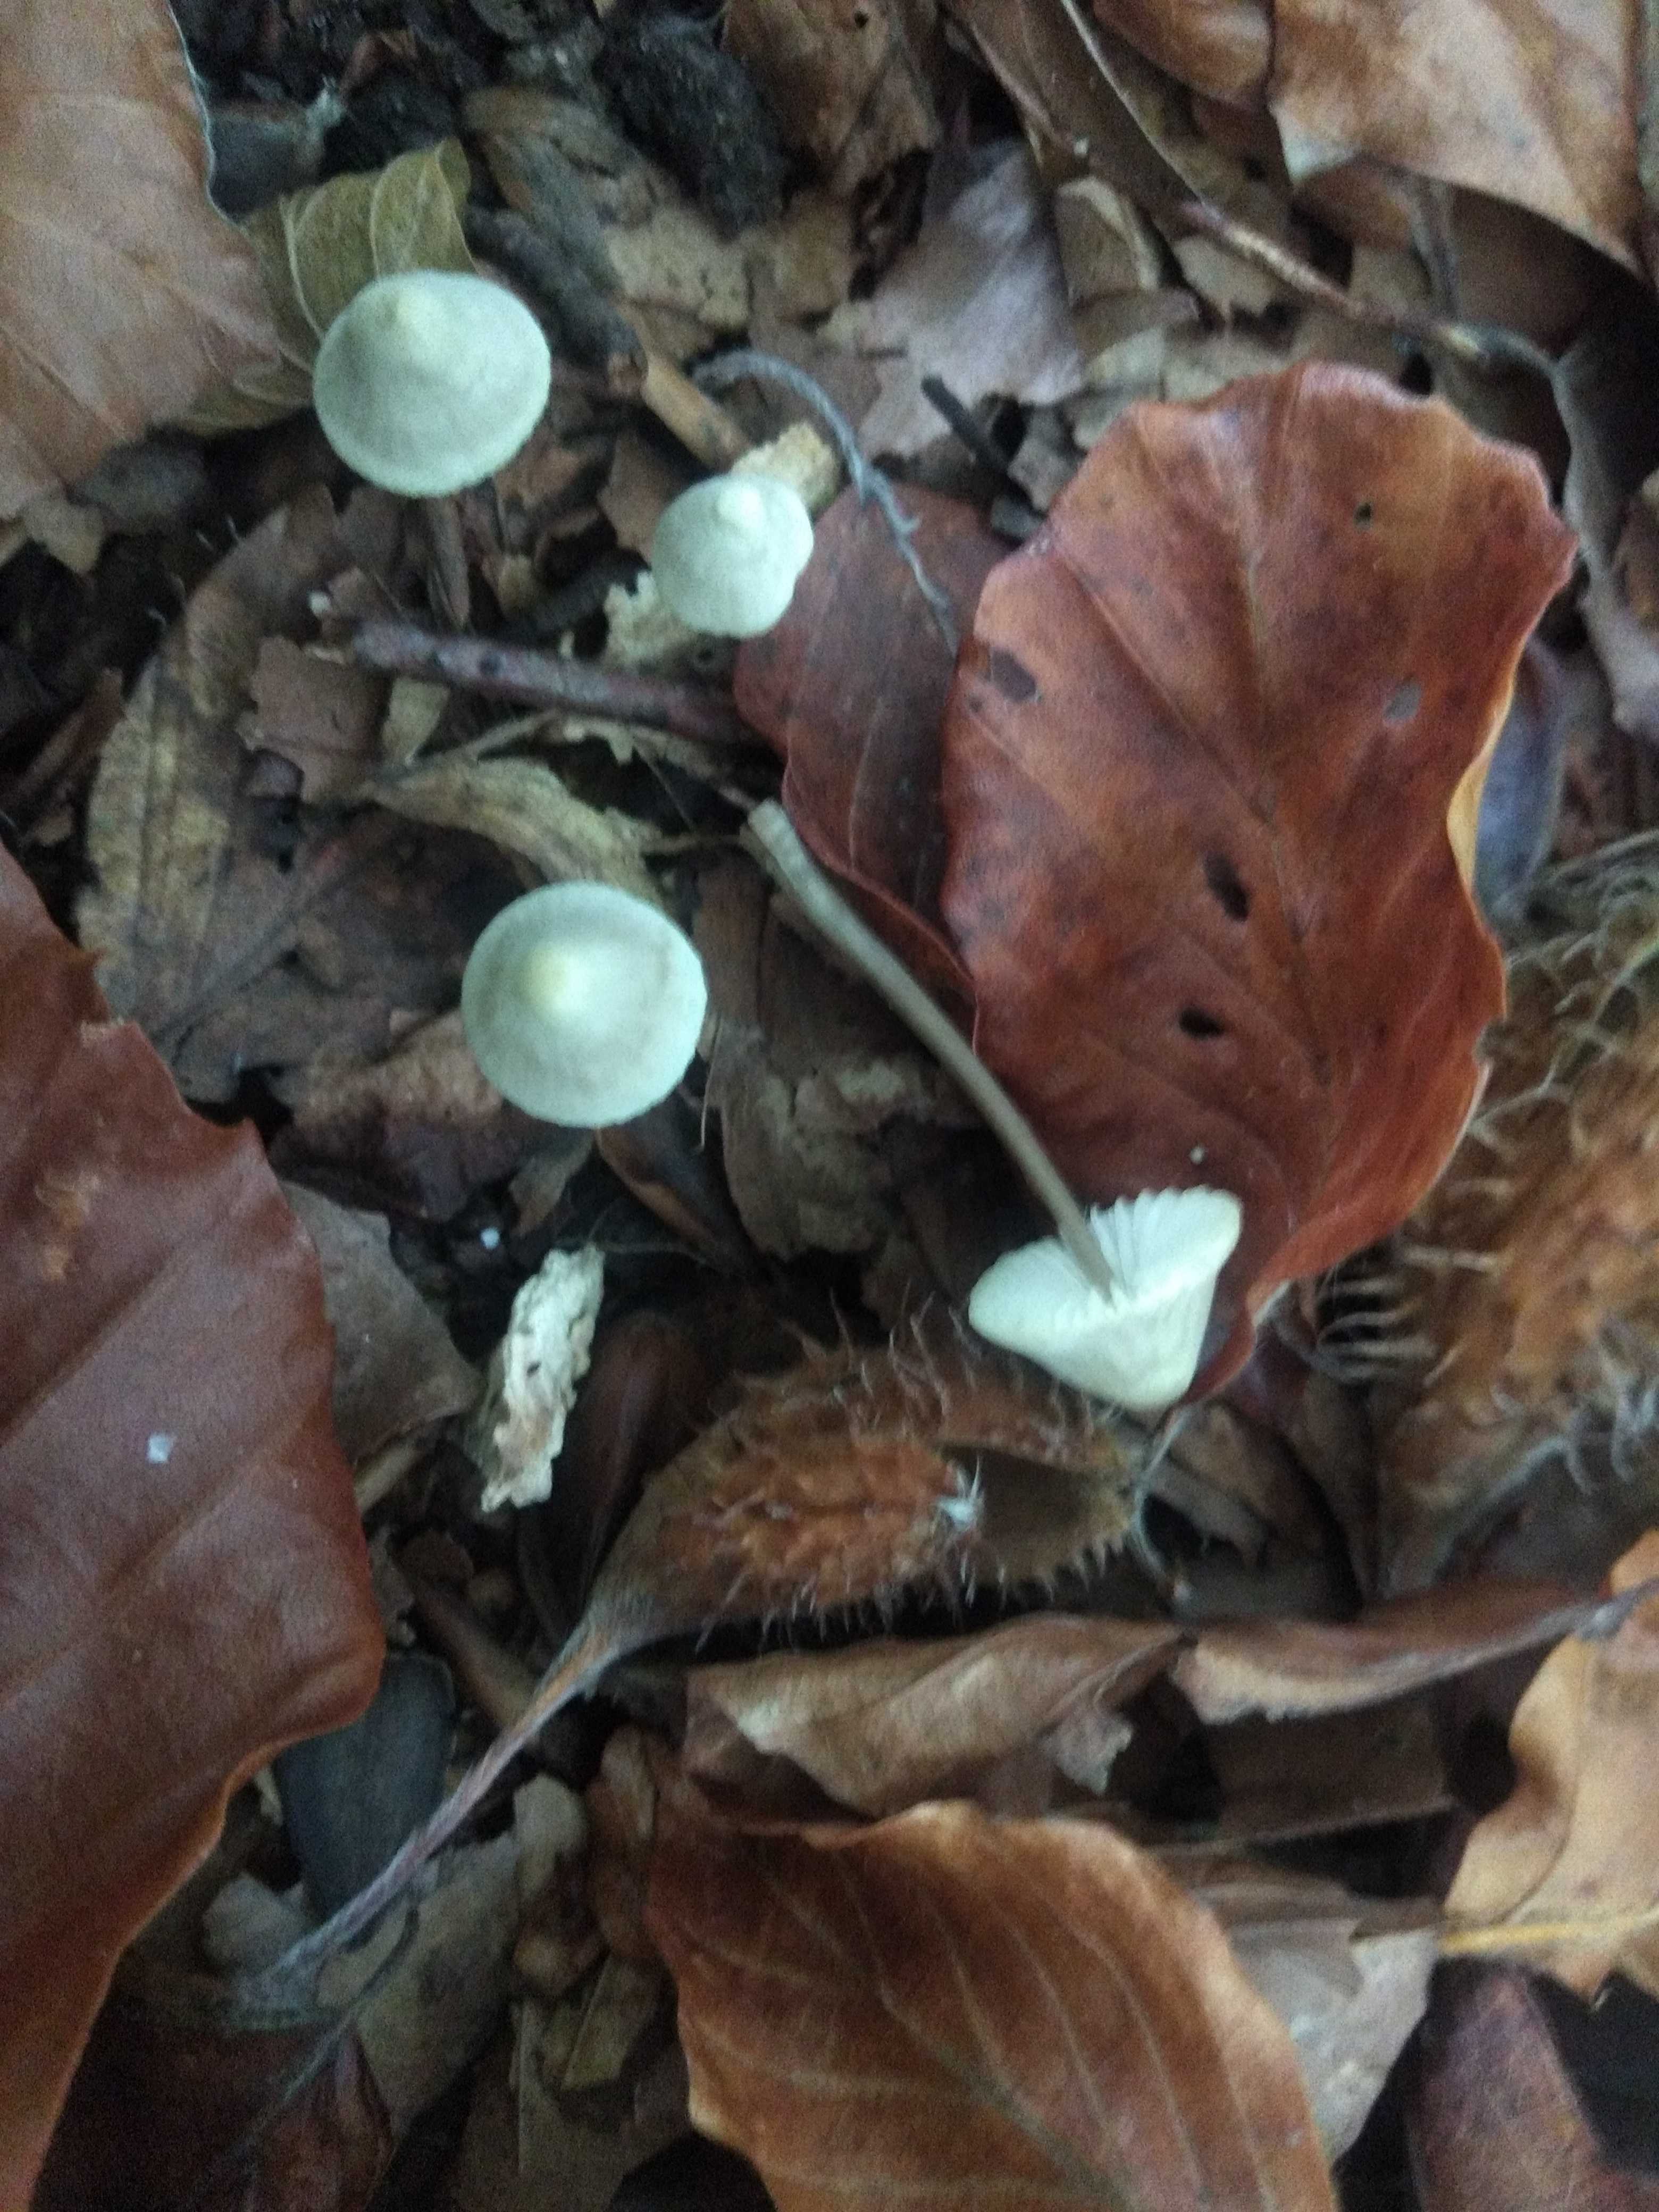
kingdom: Fungi
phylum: Basidiomycota
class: Agaricomycetes
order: Agaricales
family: Mycenaceae
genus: Mycena
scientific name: Mycena flavescens
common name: grågul huesvamp
